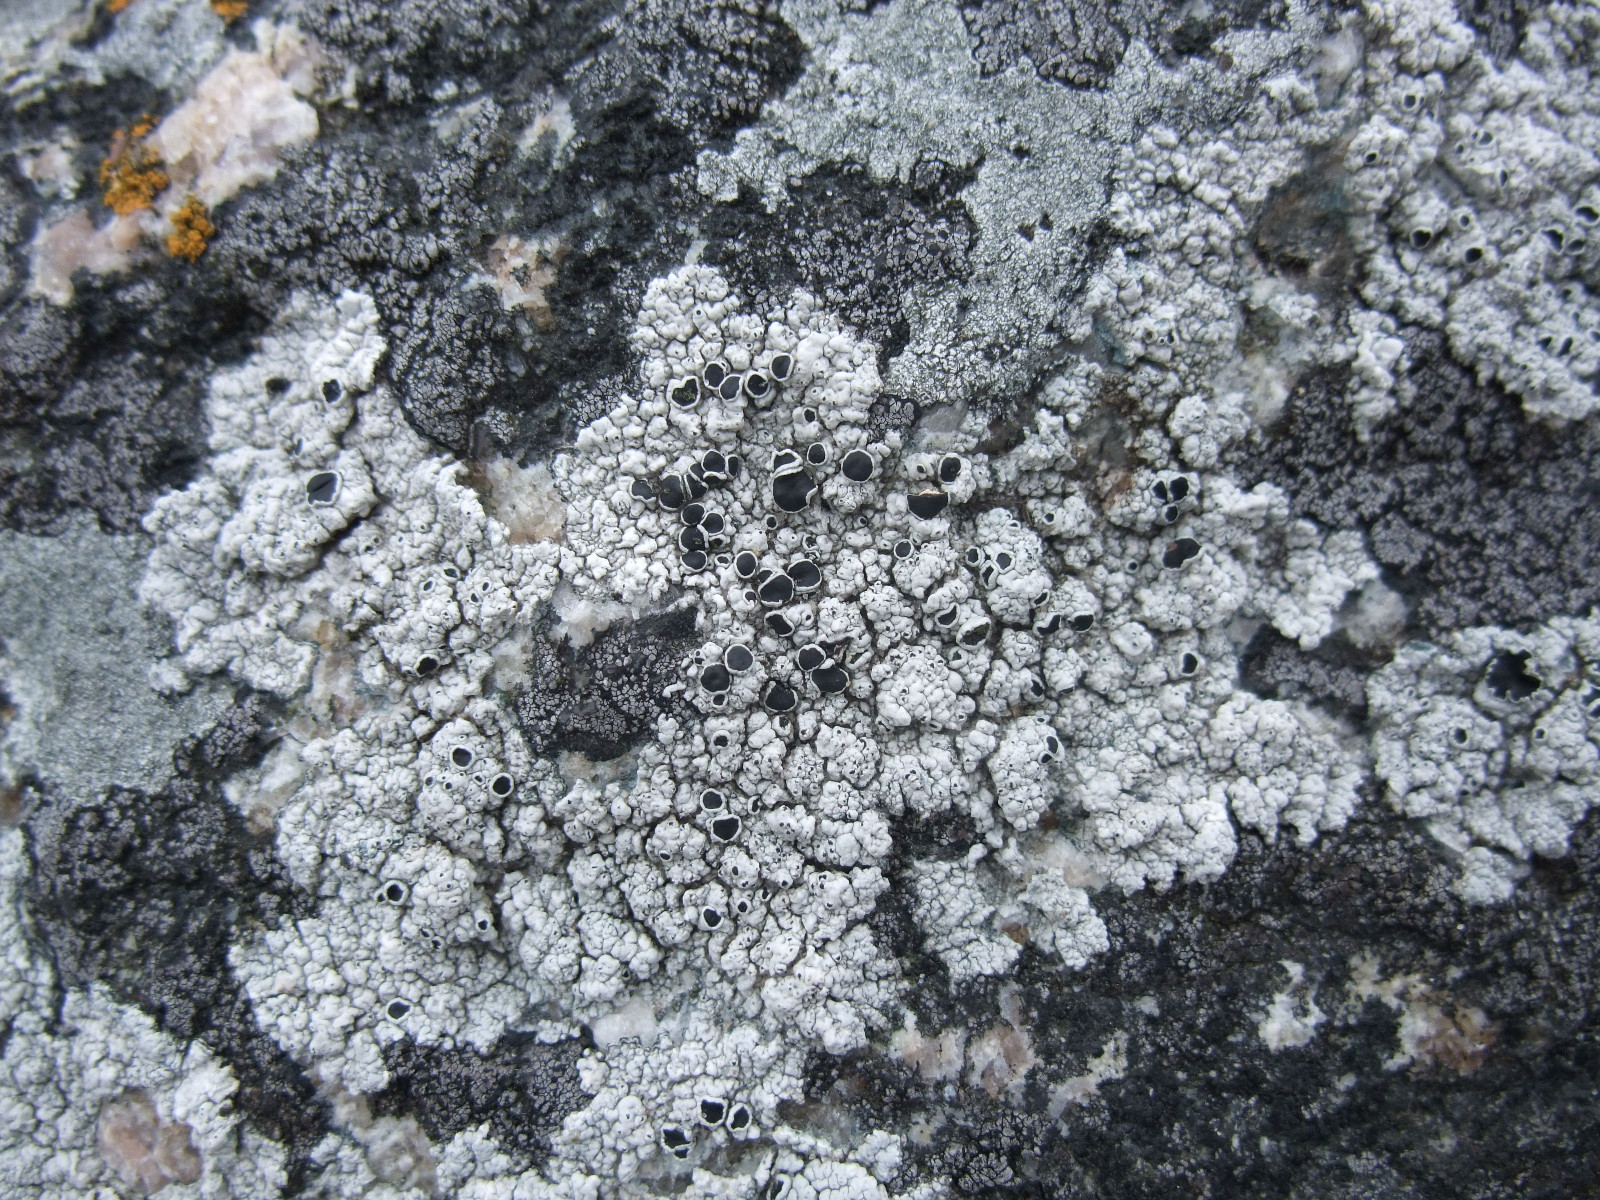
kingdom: Fungi
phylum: Ascomycota
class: Lecanoromycetes
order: Lecanorales
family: Tephromelataceae
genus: Tephromela
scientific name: Tephromela atra
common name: sortfrugtet kantskivelav
